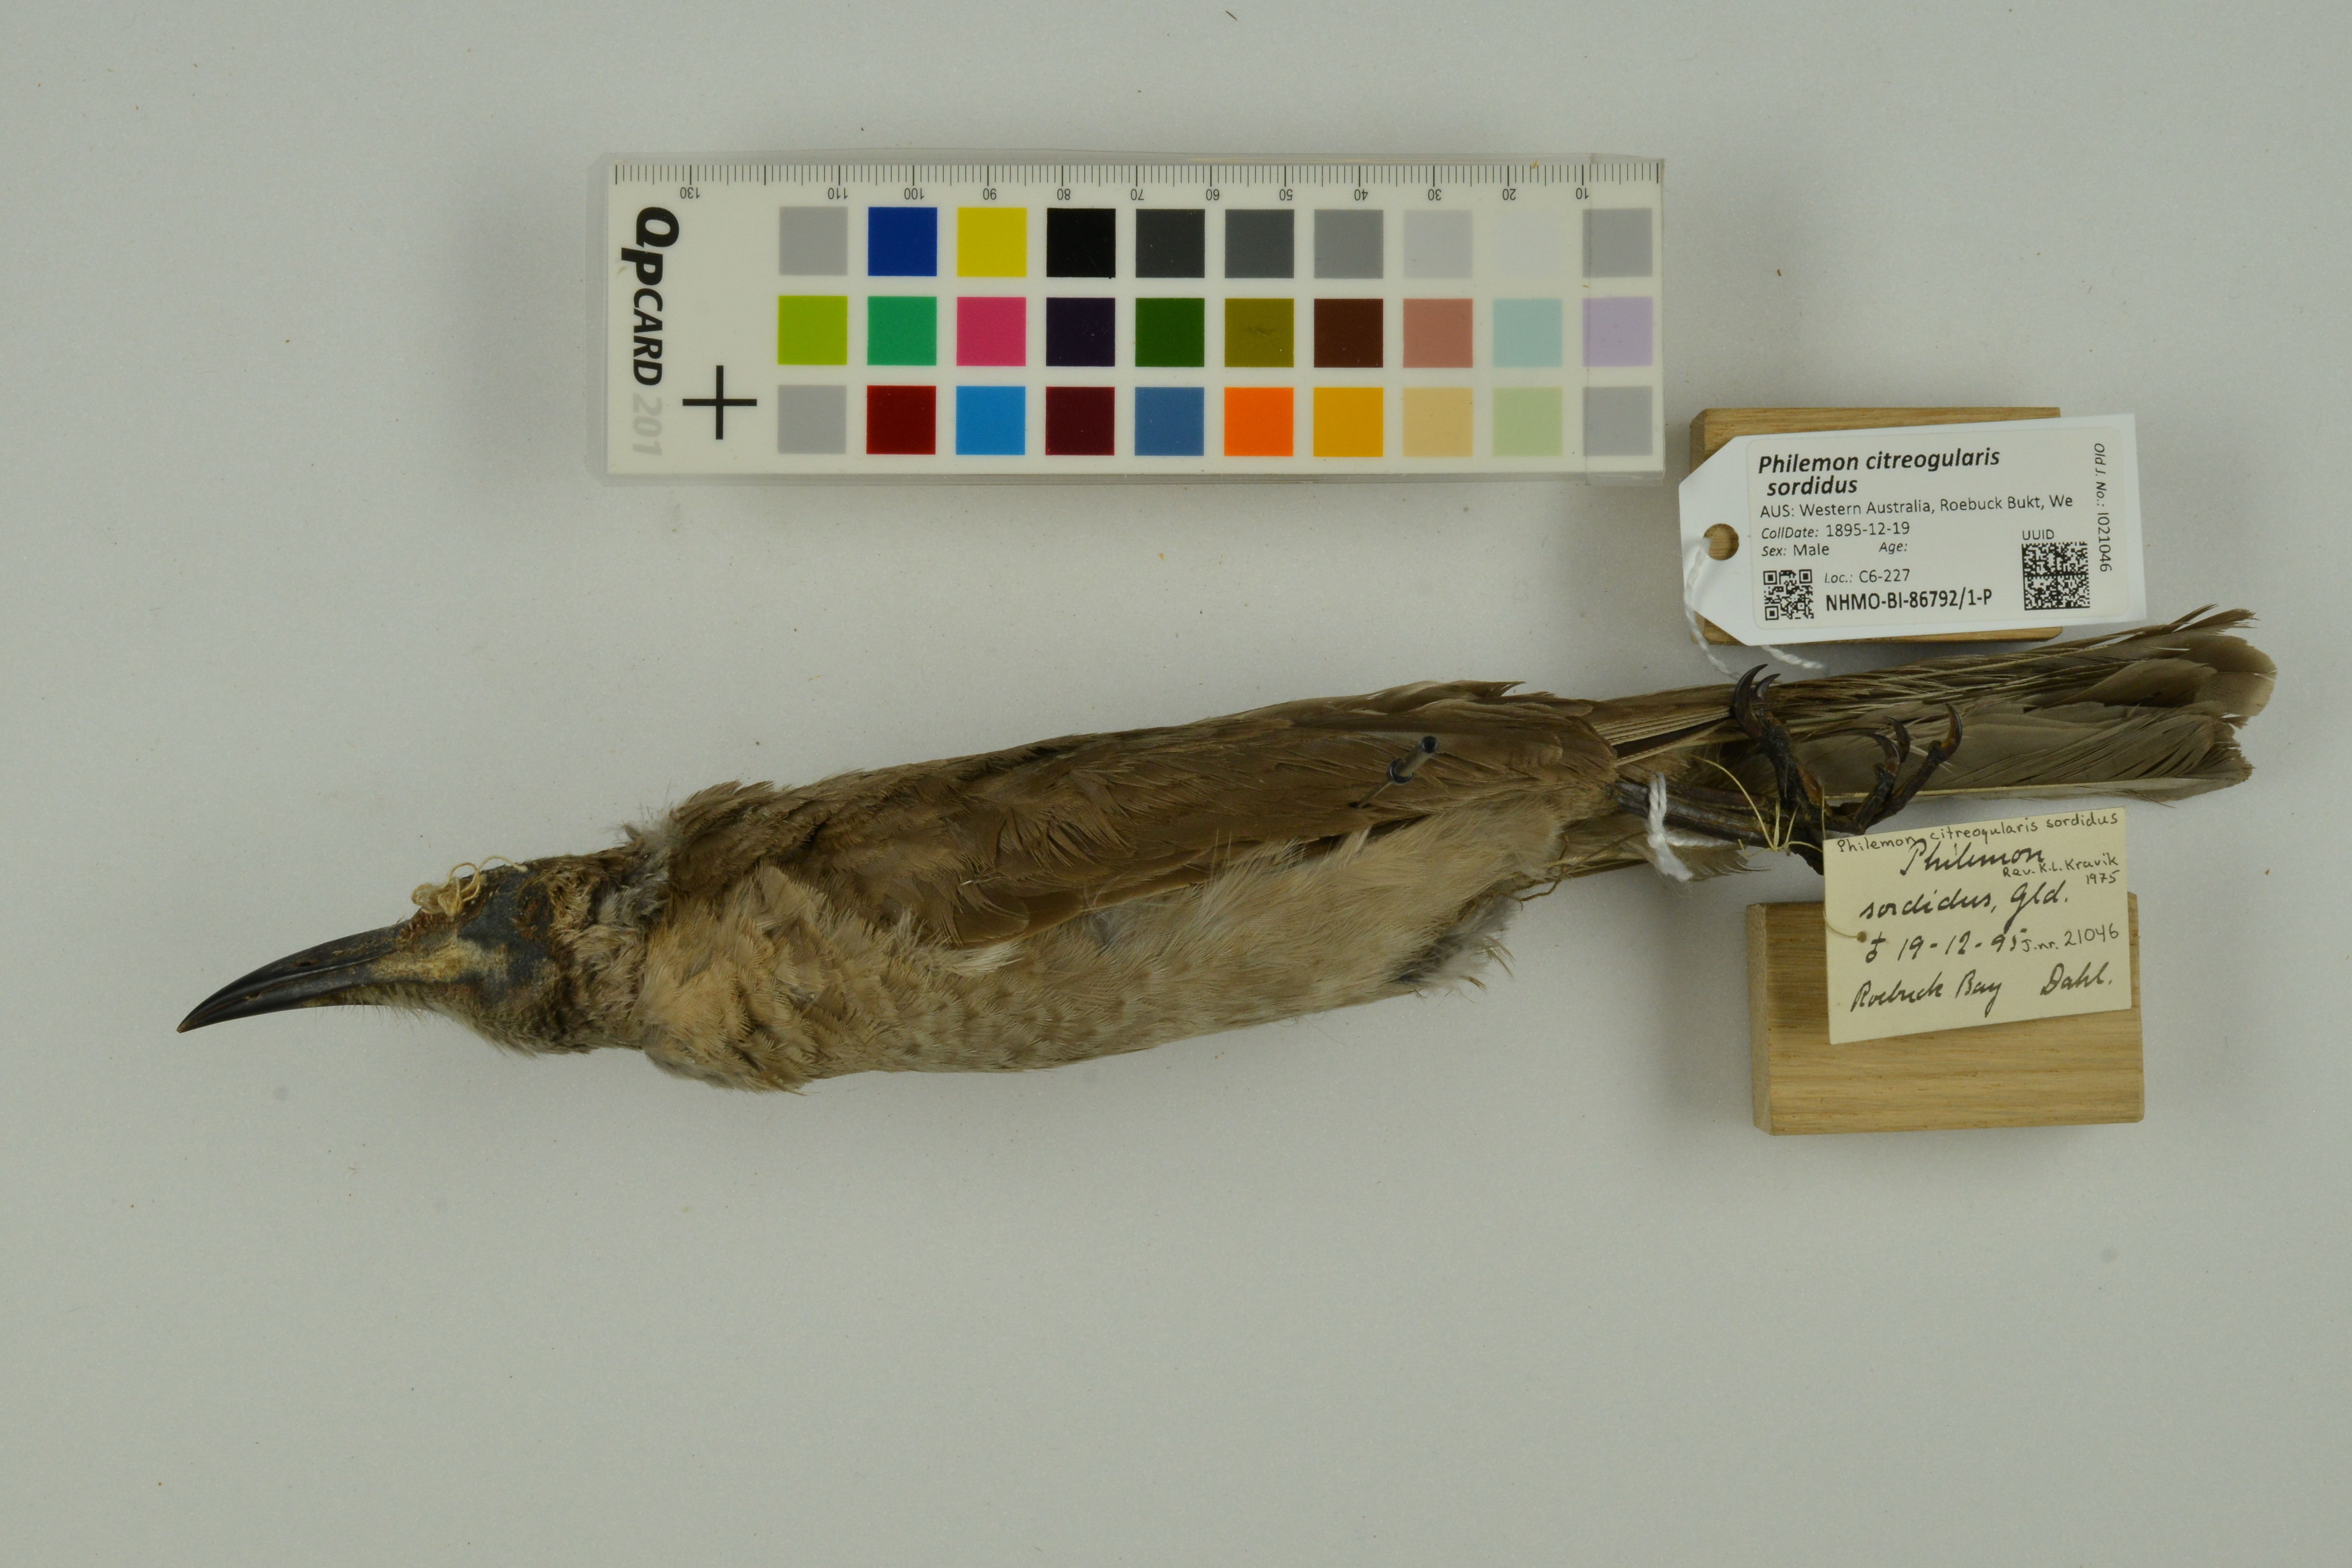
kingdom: Animalia
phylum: Chordata
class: Aves
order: Passeriformes
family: Meliphagidae
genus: Philemon
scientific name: Philemon citreogularis
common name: Little friarbird
